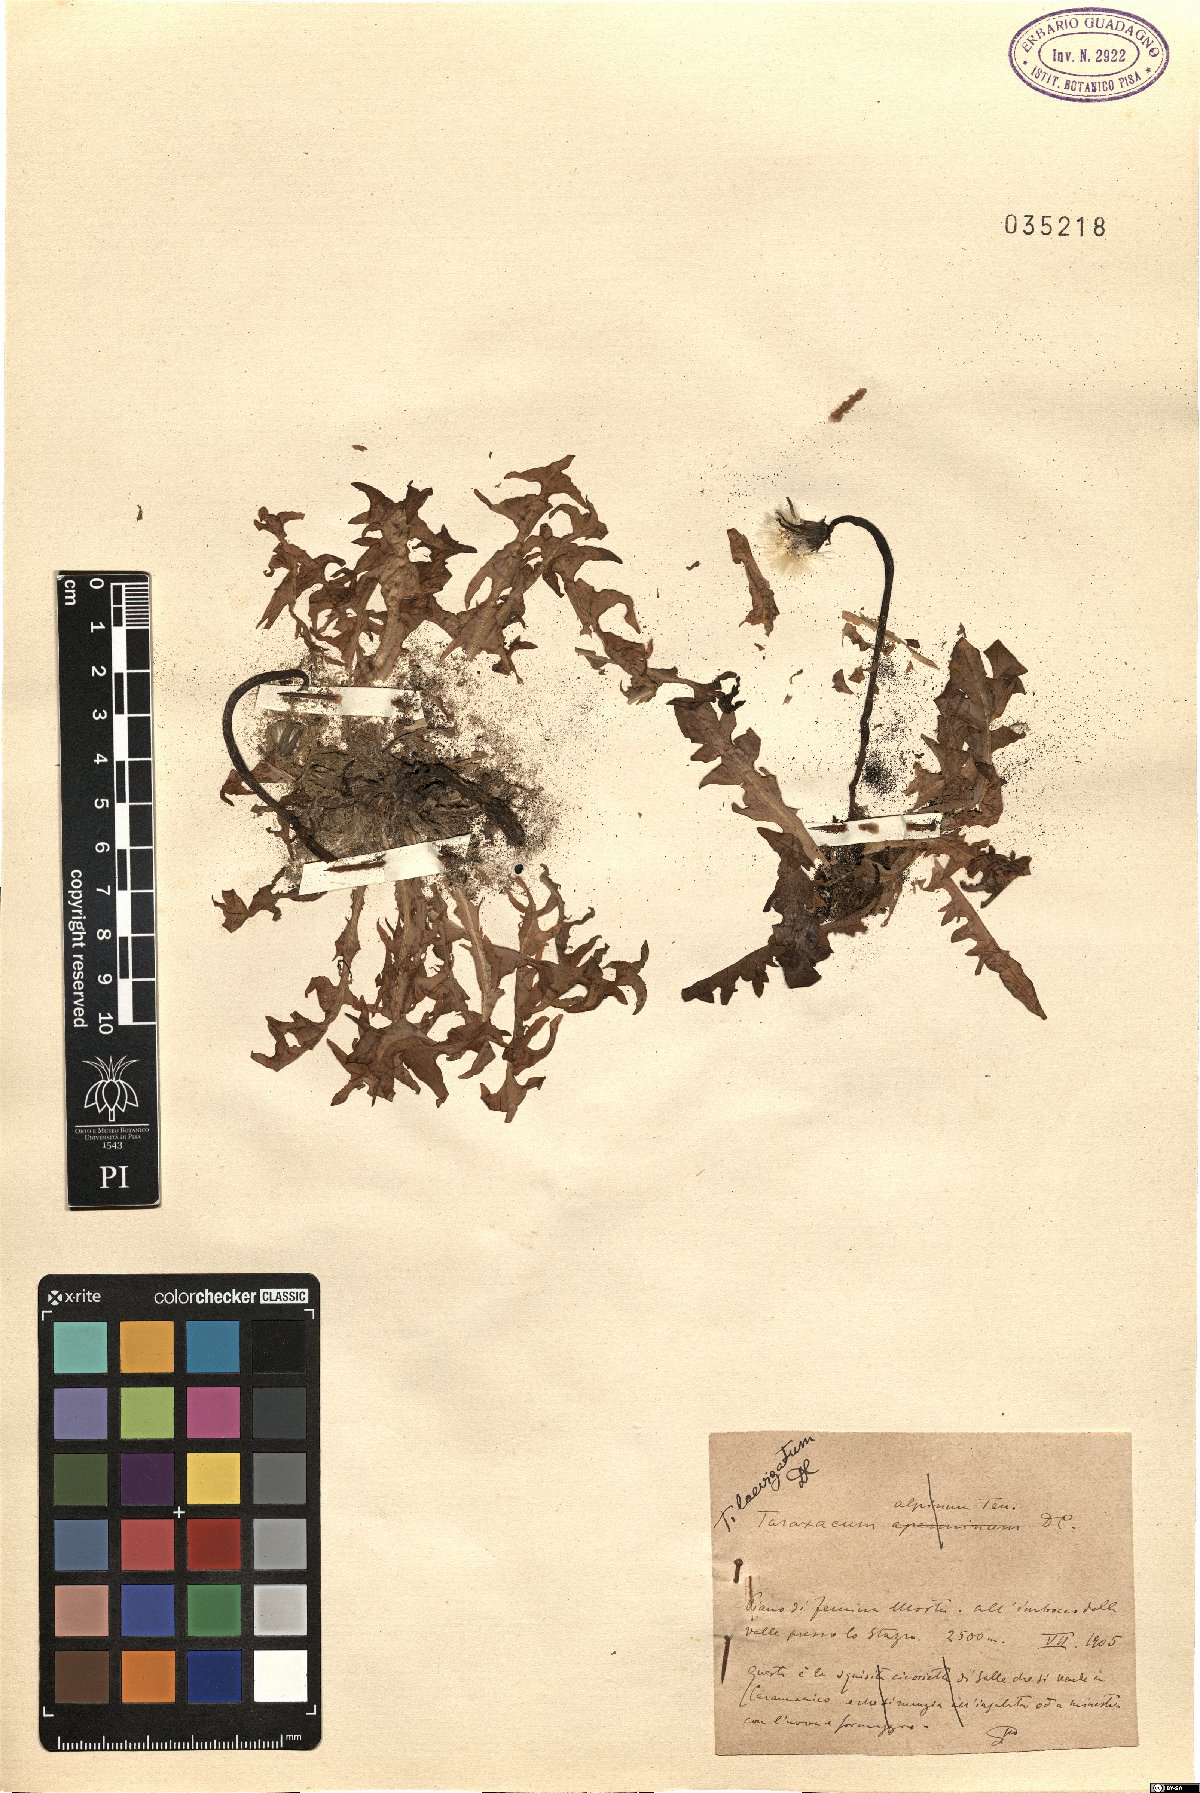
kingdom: Plantae
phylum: Tracheophyta
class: Magnoliopsida
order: Asterales
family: Asteraceae
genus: Taraxacum
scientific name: Taraxacum erythrospermum
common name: Rock dandelion
